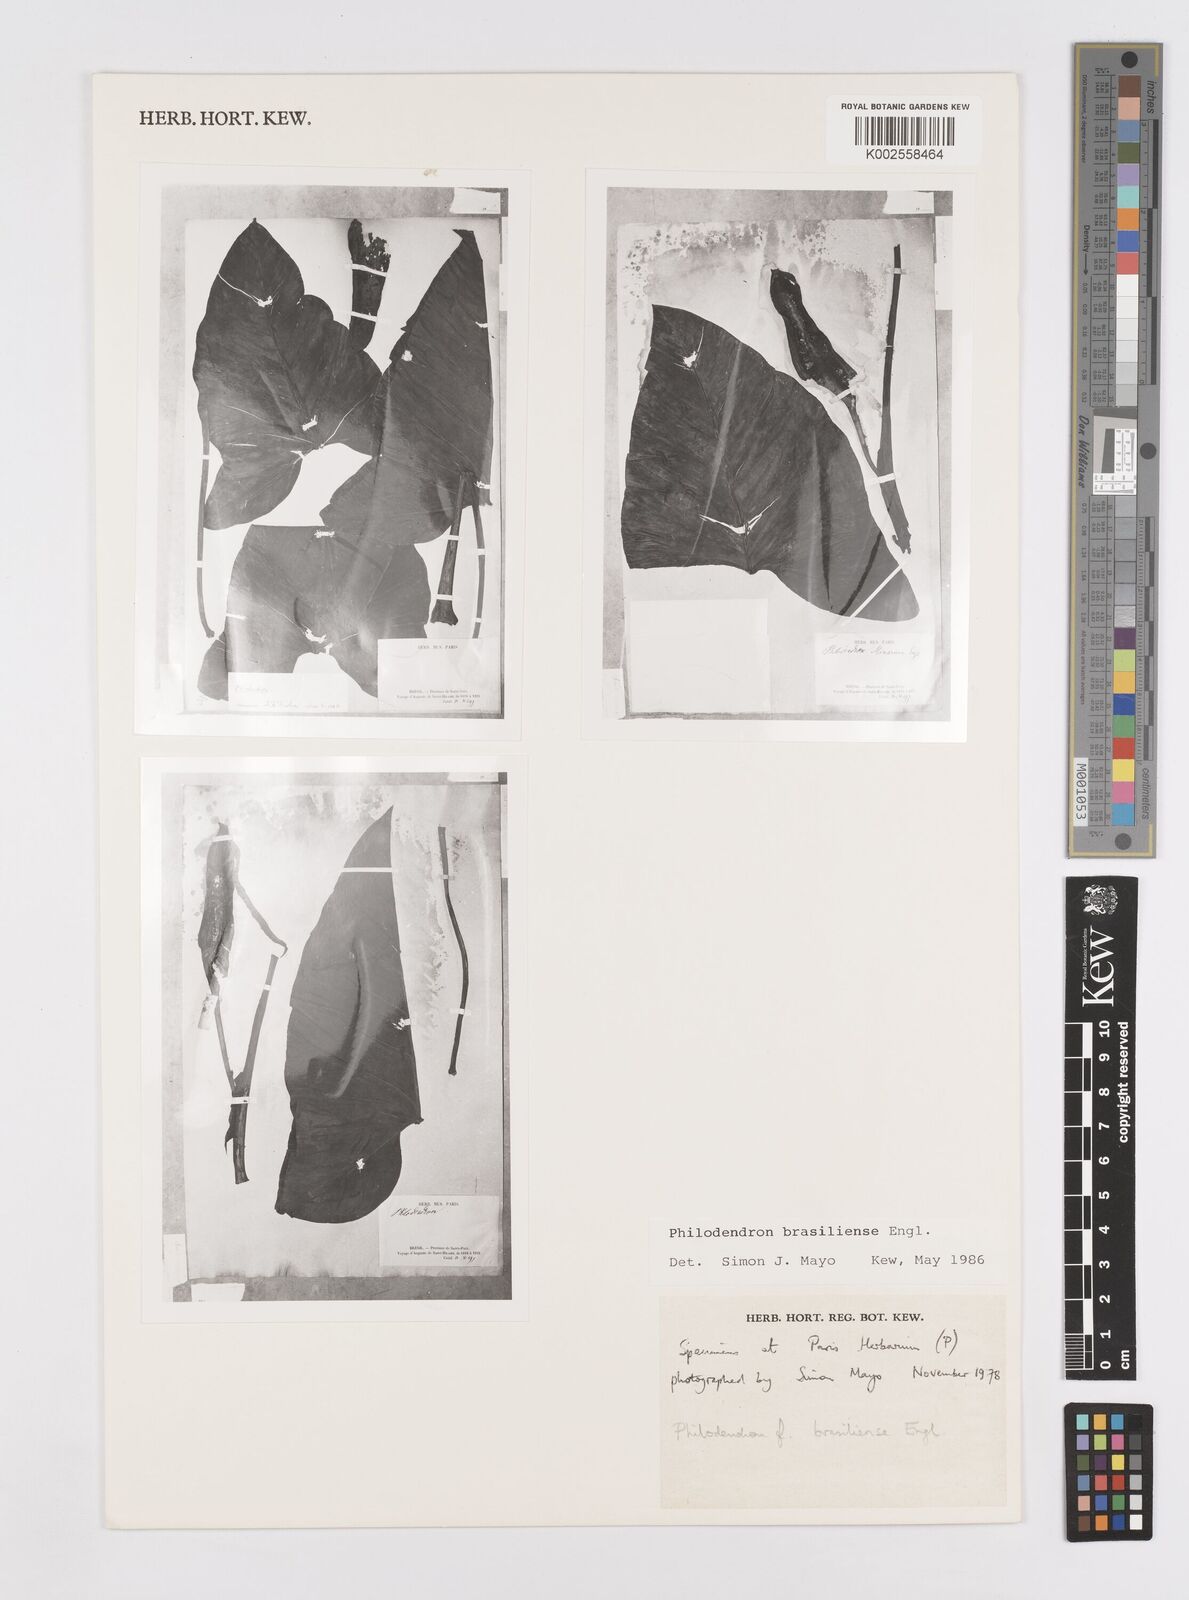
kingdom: Plantae
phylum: Tracheophyta
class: Liliopsida
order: Alismatales
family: Araceae
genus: Thaumatophyllum
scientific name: Thaumatophyllum brasiliense
